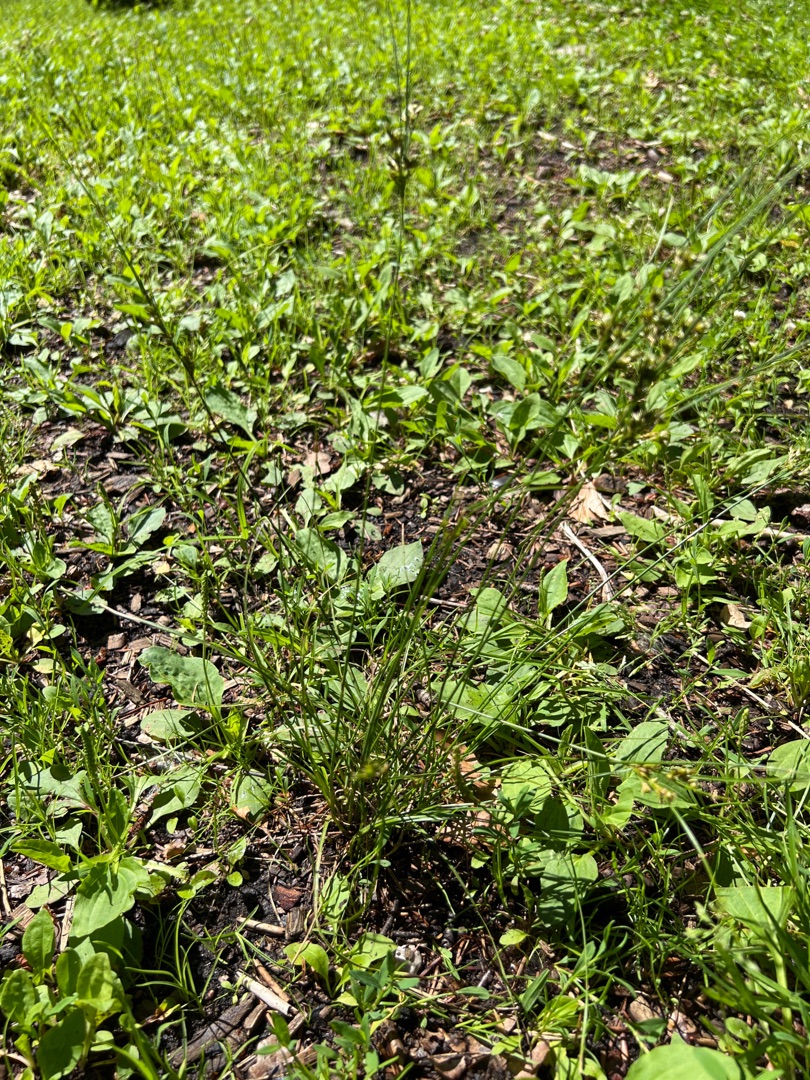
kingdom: Plantae
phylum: Tracheophyta
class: Liliopsida
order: Poales
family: Juncaceae
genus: Juncus
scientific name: Juncus tenuis
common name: Tue-siv
